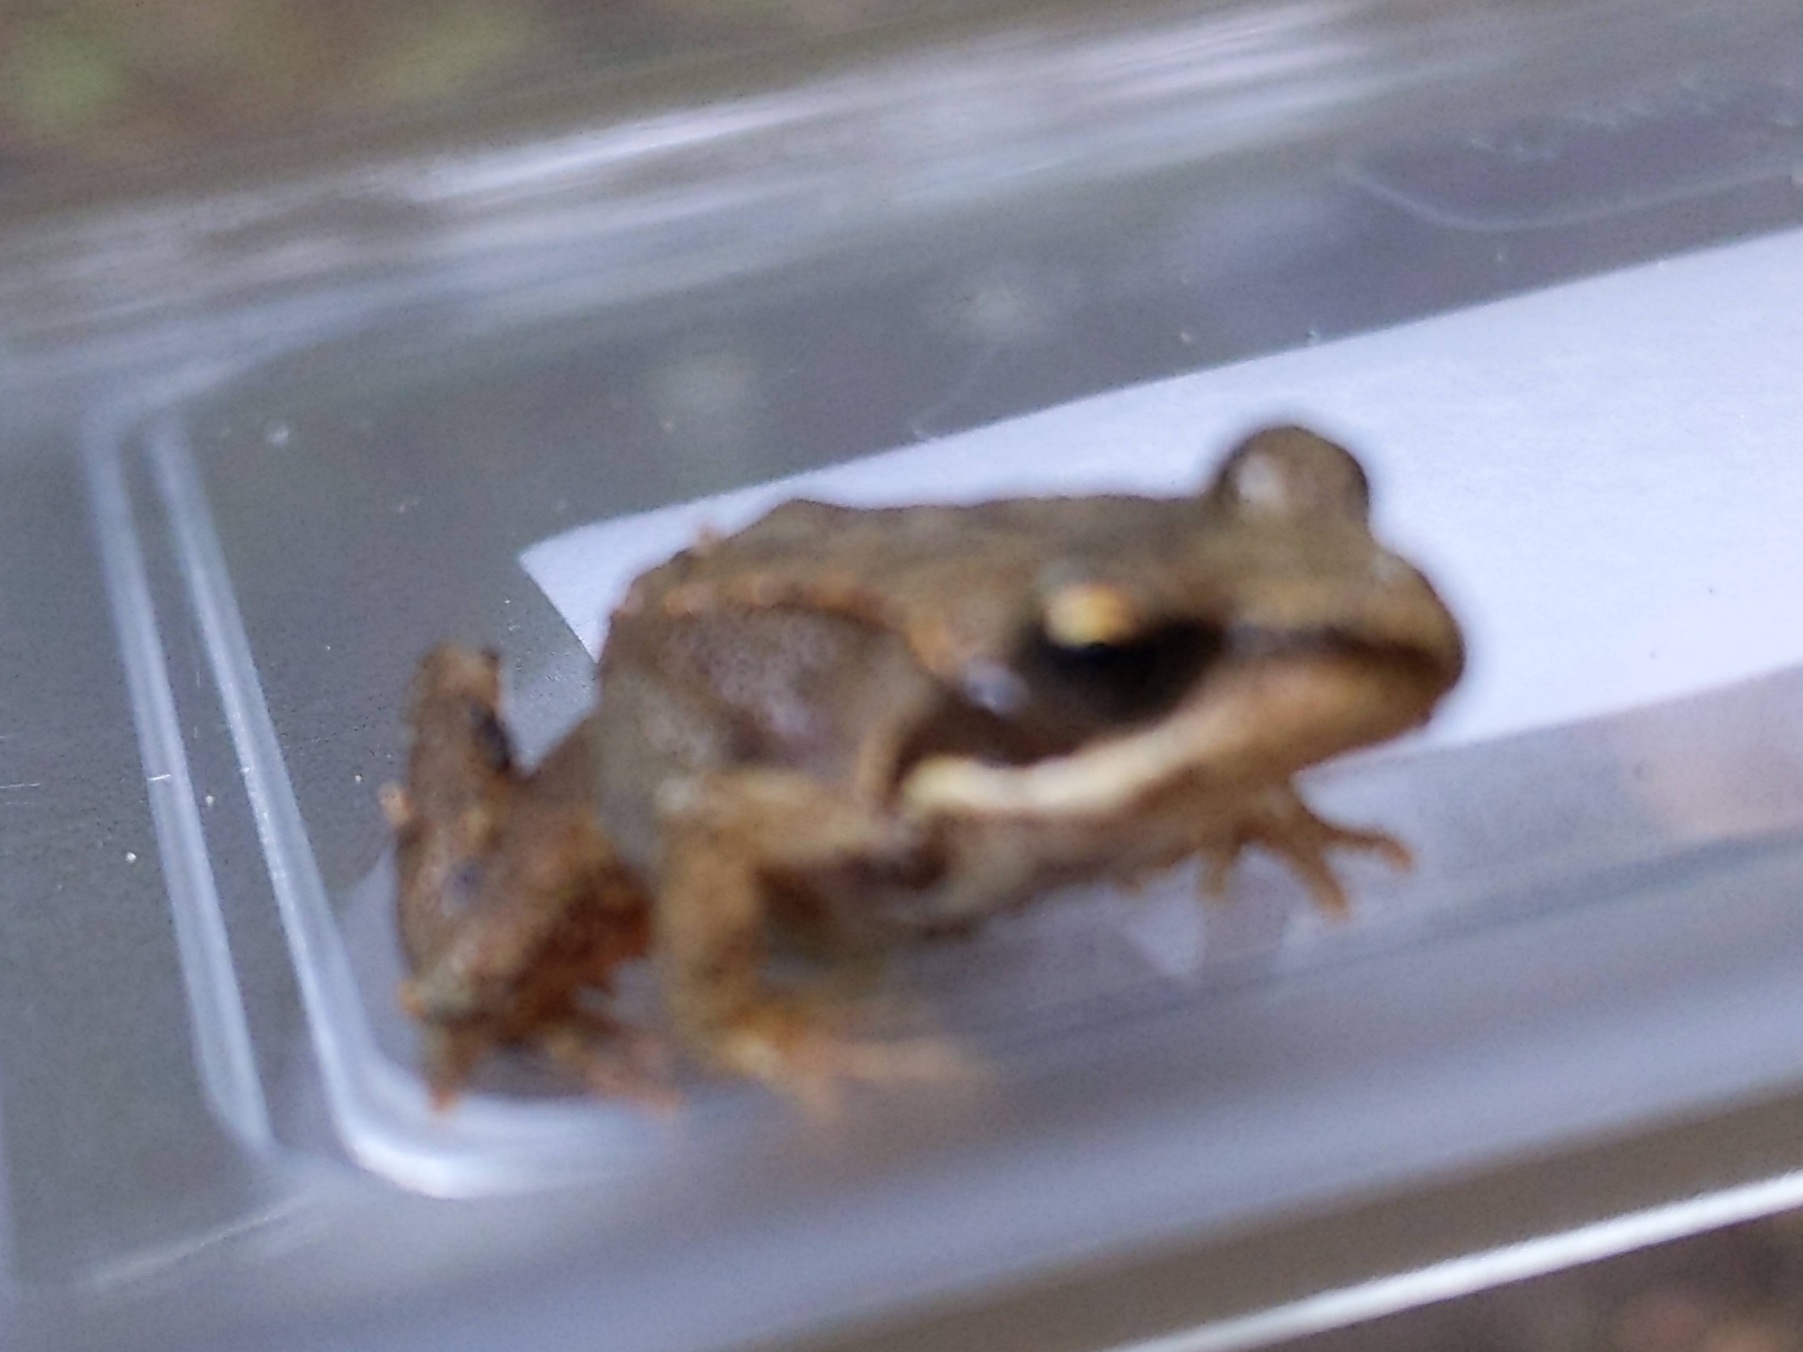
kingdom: Animalia
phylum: Chordata
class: Amphibia
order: Anura
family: Ranidae
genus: Rana
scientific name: Rana temporaria
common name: Butsnudet frø
